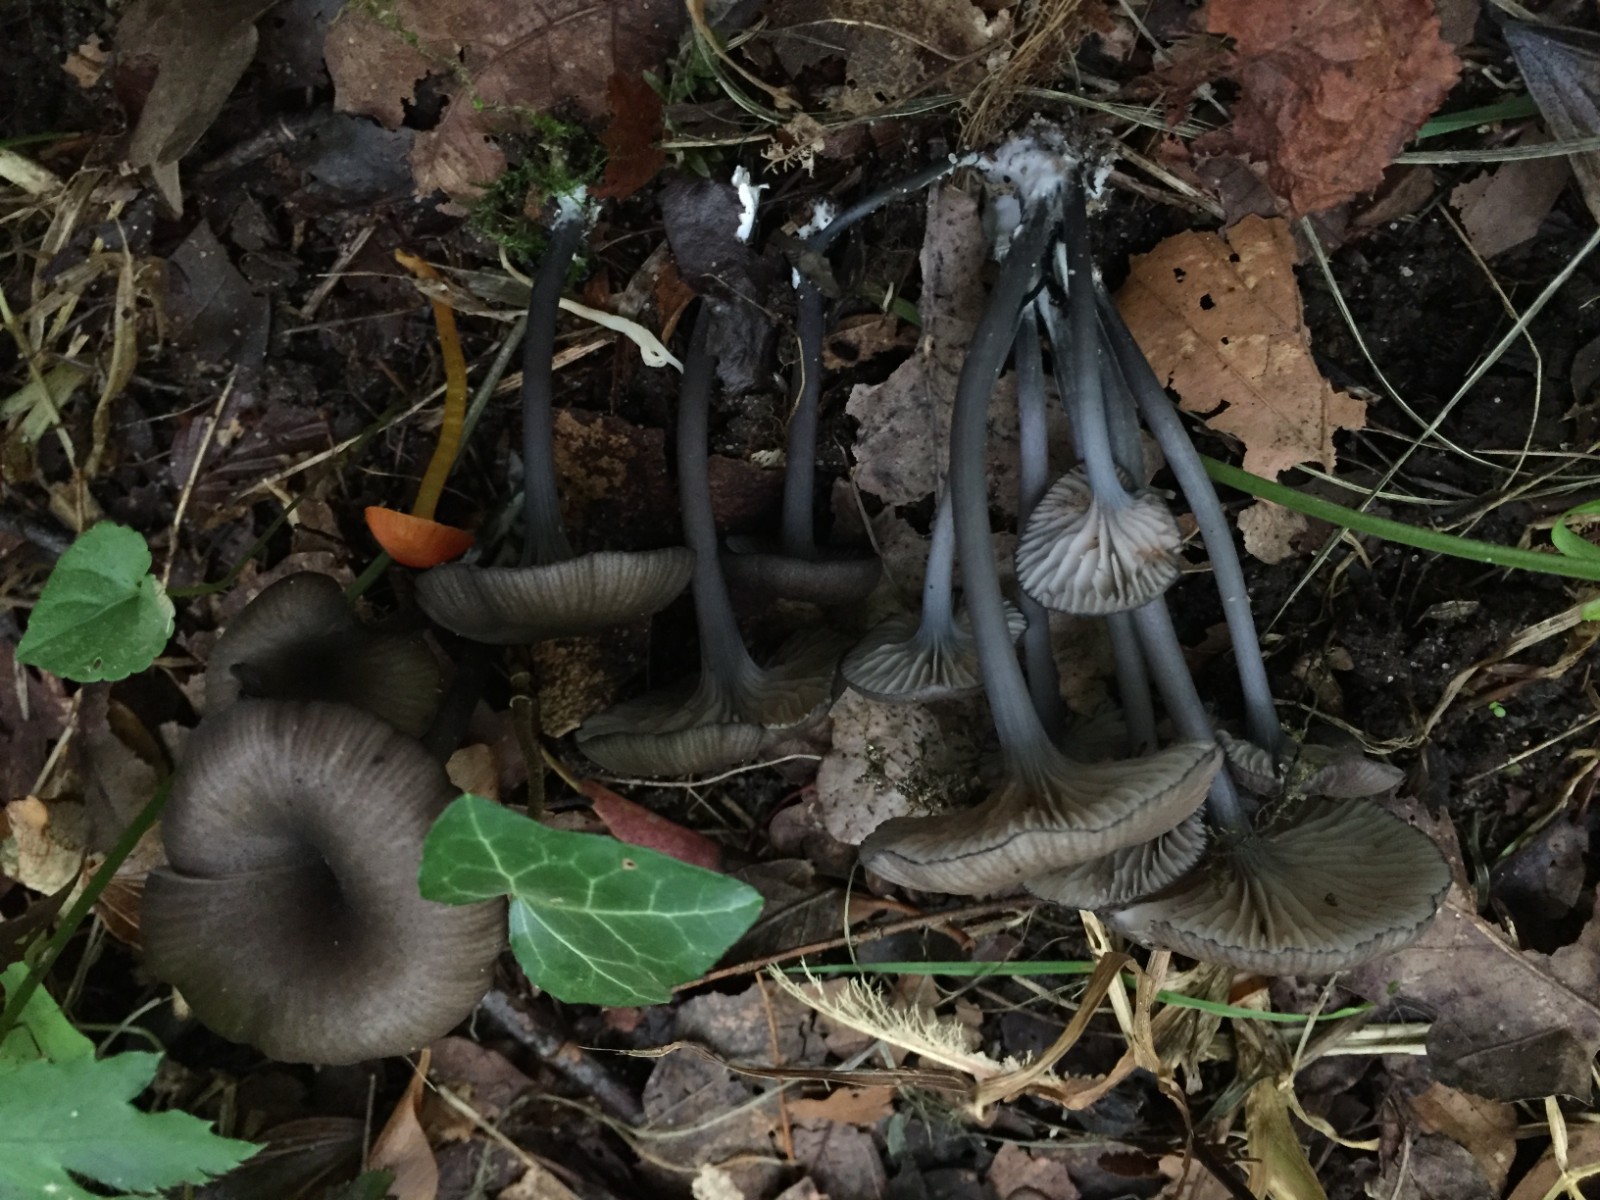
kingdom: Fungi
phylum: Basidiomycota
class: Agaricomycetes
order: Agaricales
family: Entolomataceae
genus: Entoloma
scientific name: Entoloma caesiocinctum
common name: Blue-girdled pinkgill
